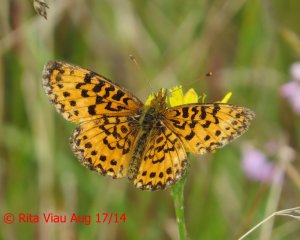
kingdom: Animalia
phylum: Arthropoda
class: Insecta
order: Lepidoptera
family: Nymphalidae
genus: Boloria
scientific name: Boloria selene
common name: Silver-bordered Fritillary
